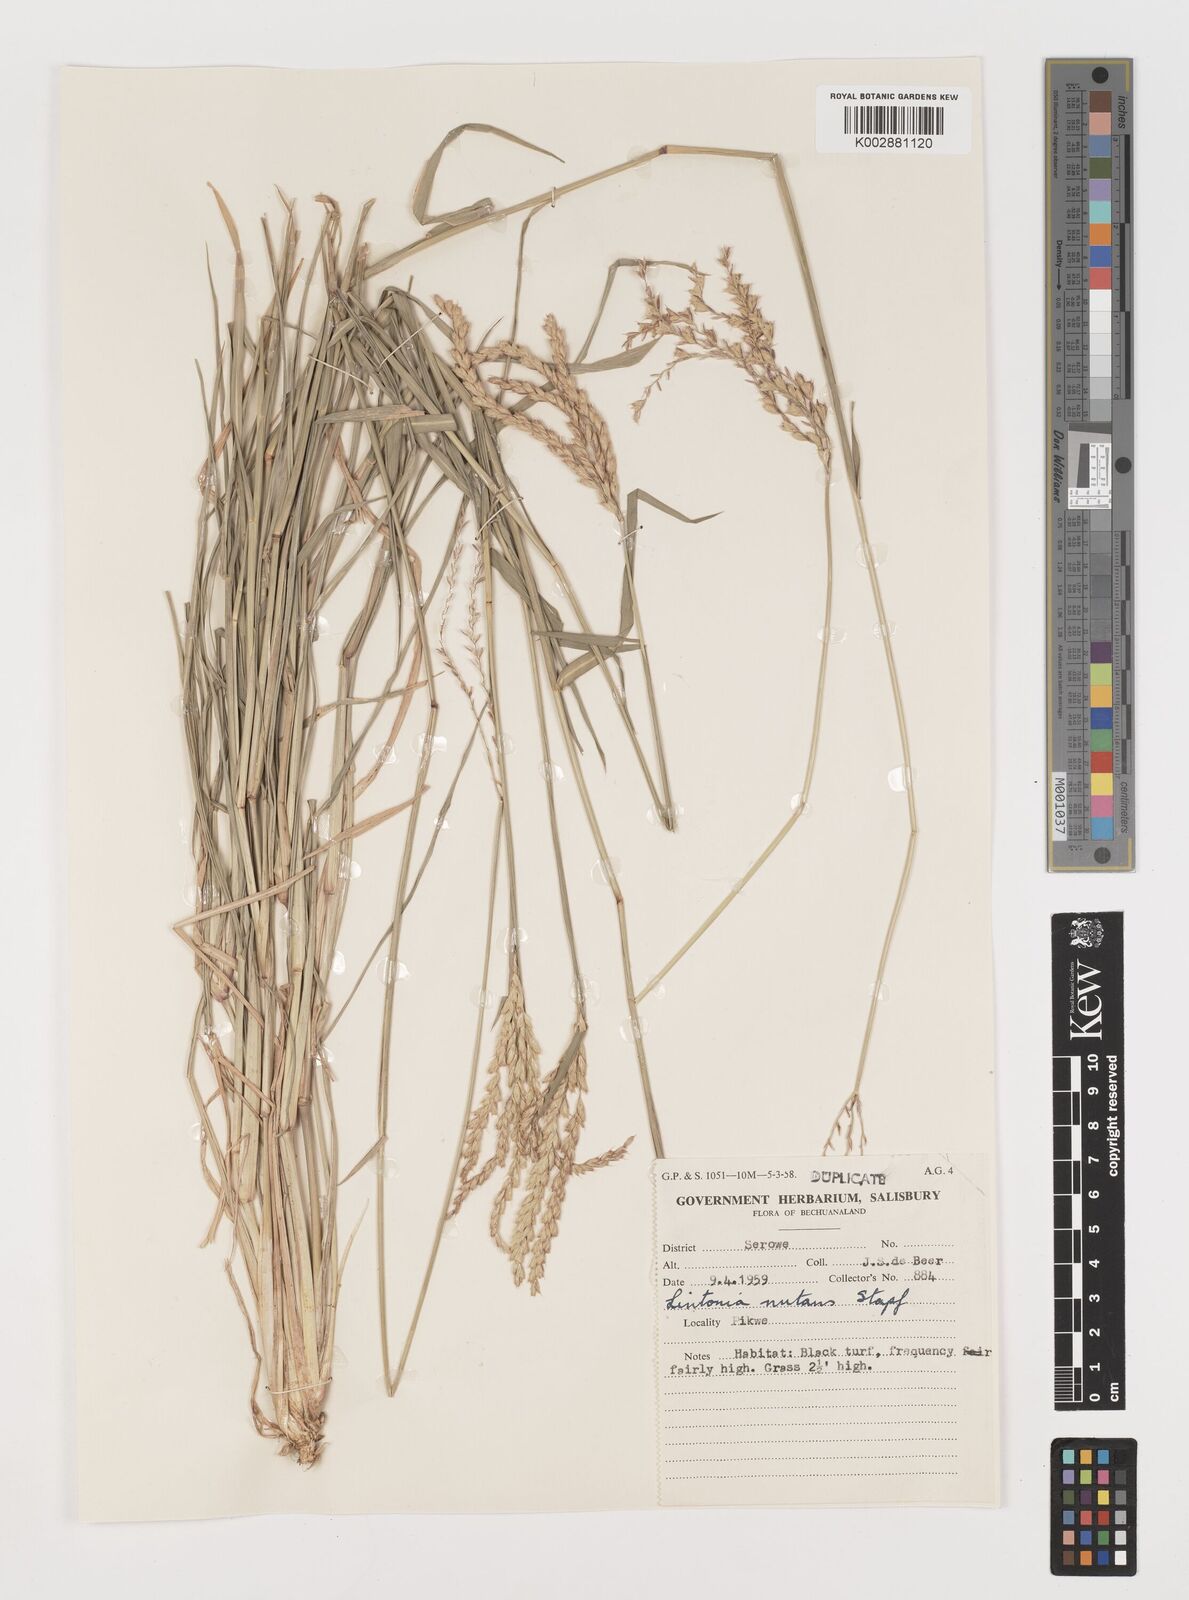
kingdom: Plantae
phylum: Tracheophyta
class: Liliopsida
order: Poales
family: Poaceae
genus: Chloris
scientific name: Chloris nutans
